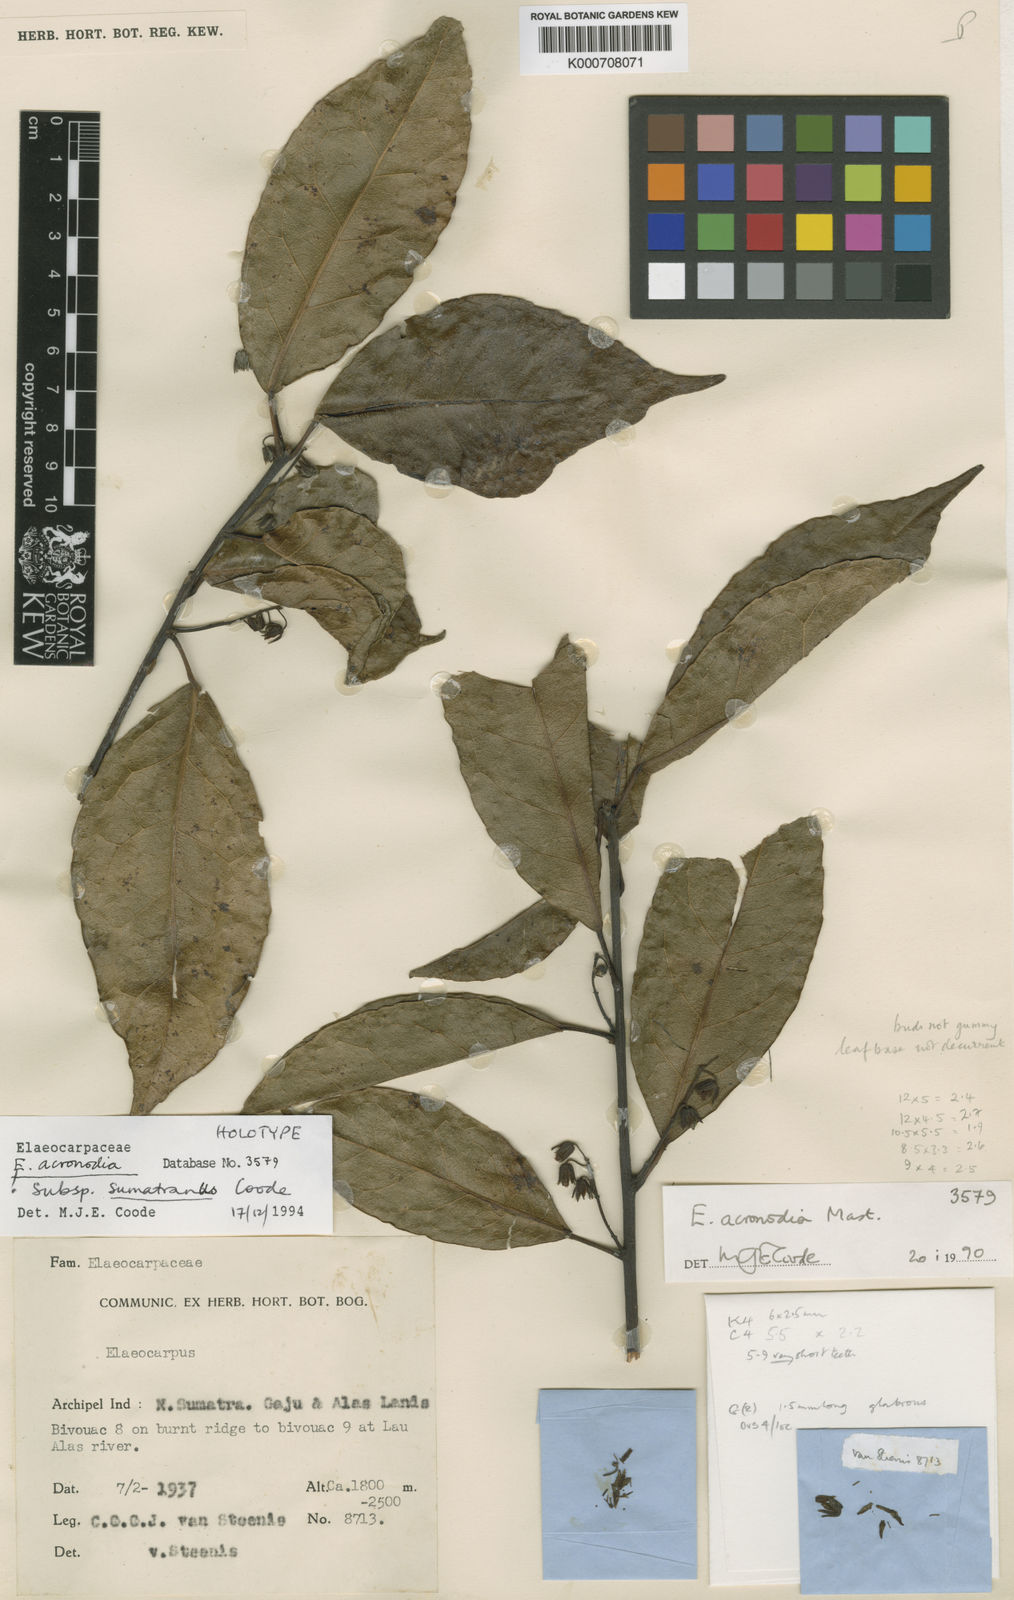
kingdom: Plantae
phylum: Tracheophyta
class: Magnoliopsida
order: Oxalidales
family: Elaeocarpaceae
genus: Elaeocarpus
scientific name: Elaeocarpus acronodia
